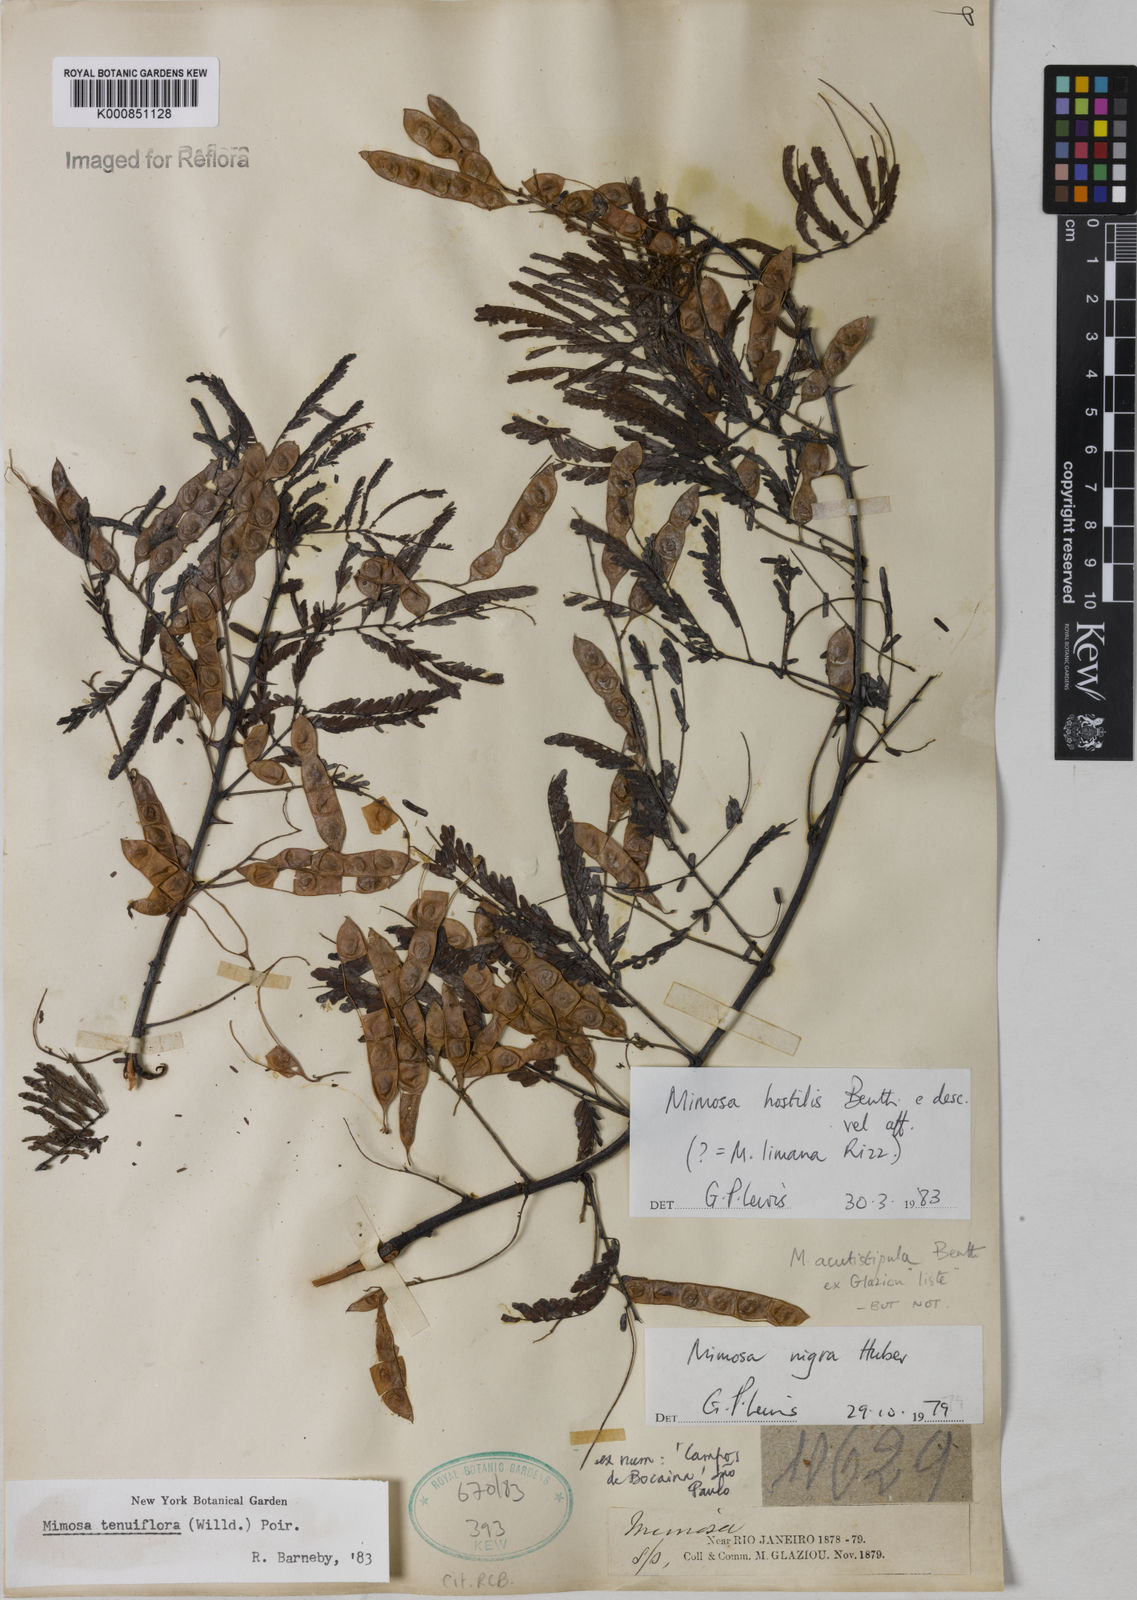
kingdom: Plantae
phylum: Tracheophyta
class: Magnoliopsida
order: Fabales
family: Fabaceae
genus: Mimosa
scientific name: Mimosa tenuiflora
